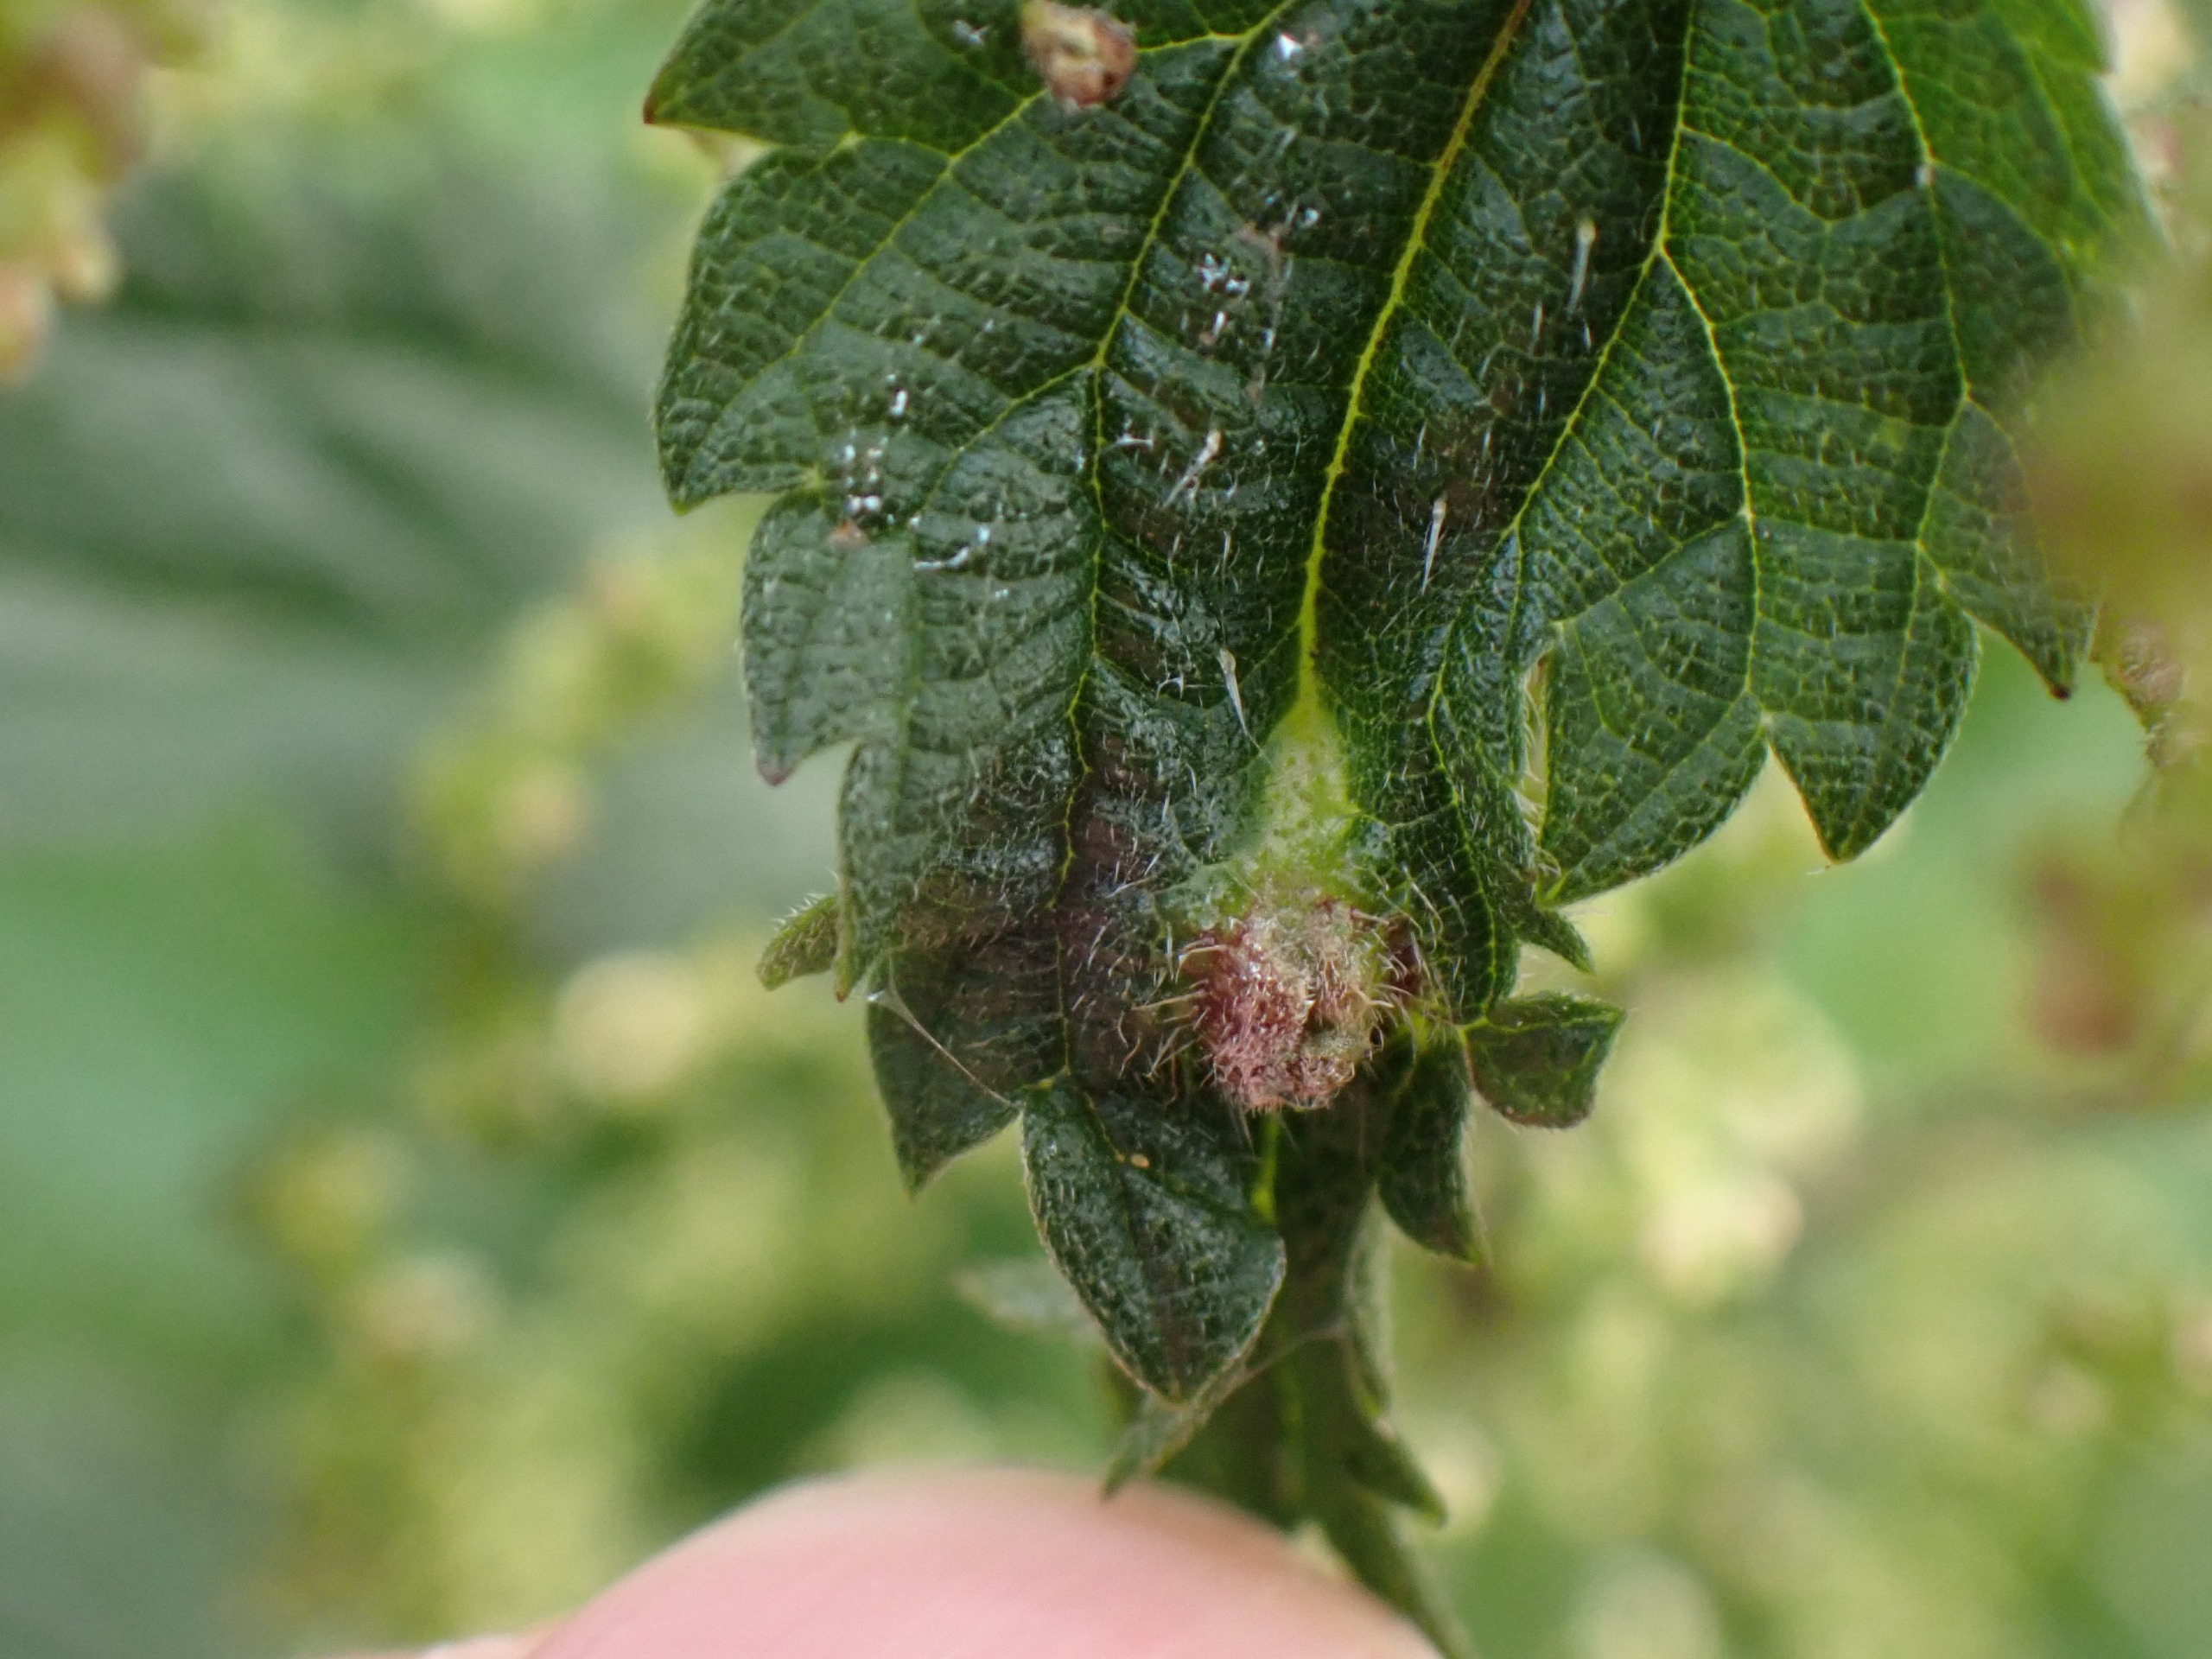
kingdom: Animalia
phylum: Arthropoda
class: Insecta
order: Diptera
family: Cecidomyiidae
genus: Dasineura
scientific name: Dasineura urticae
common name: Nældepunggalmyg
